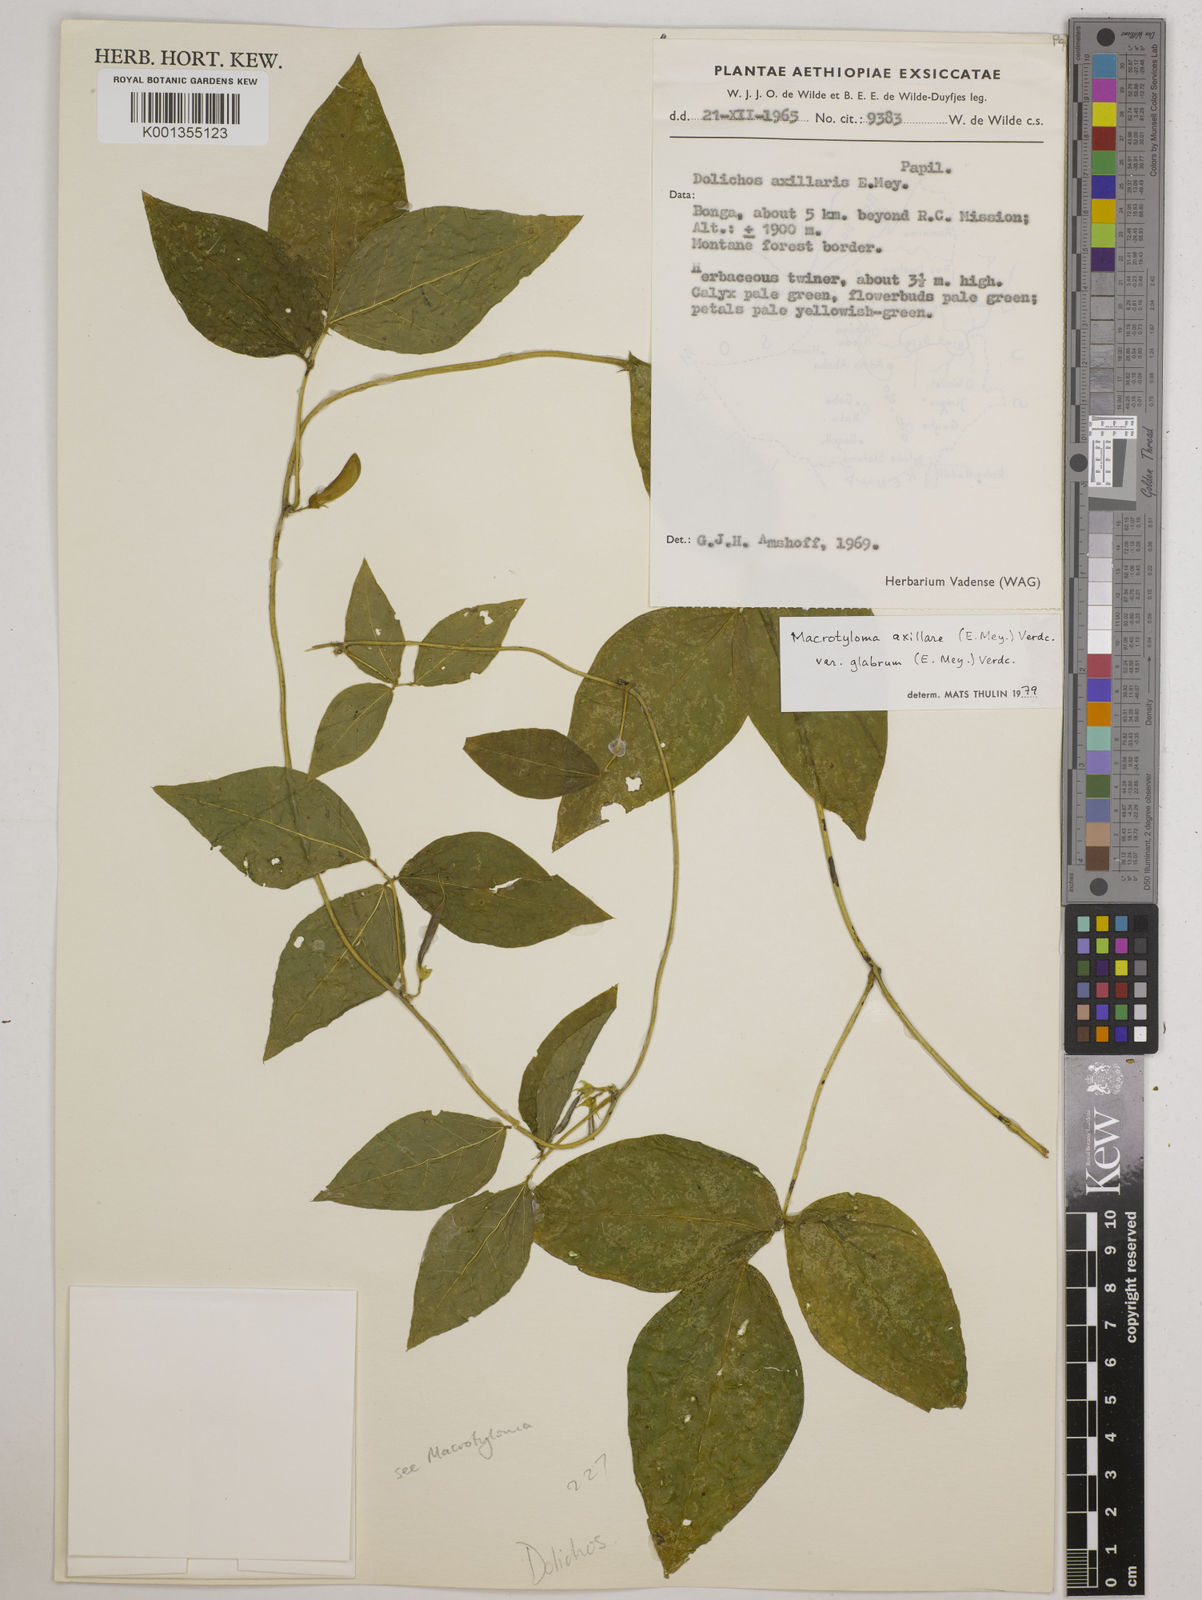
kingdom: Plantae
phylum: Tracheophyta
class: Magnoliopsida
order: Fabales
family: Fabaceae
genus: Macrotyloma
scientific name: Macrotyloma
